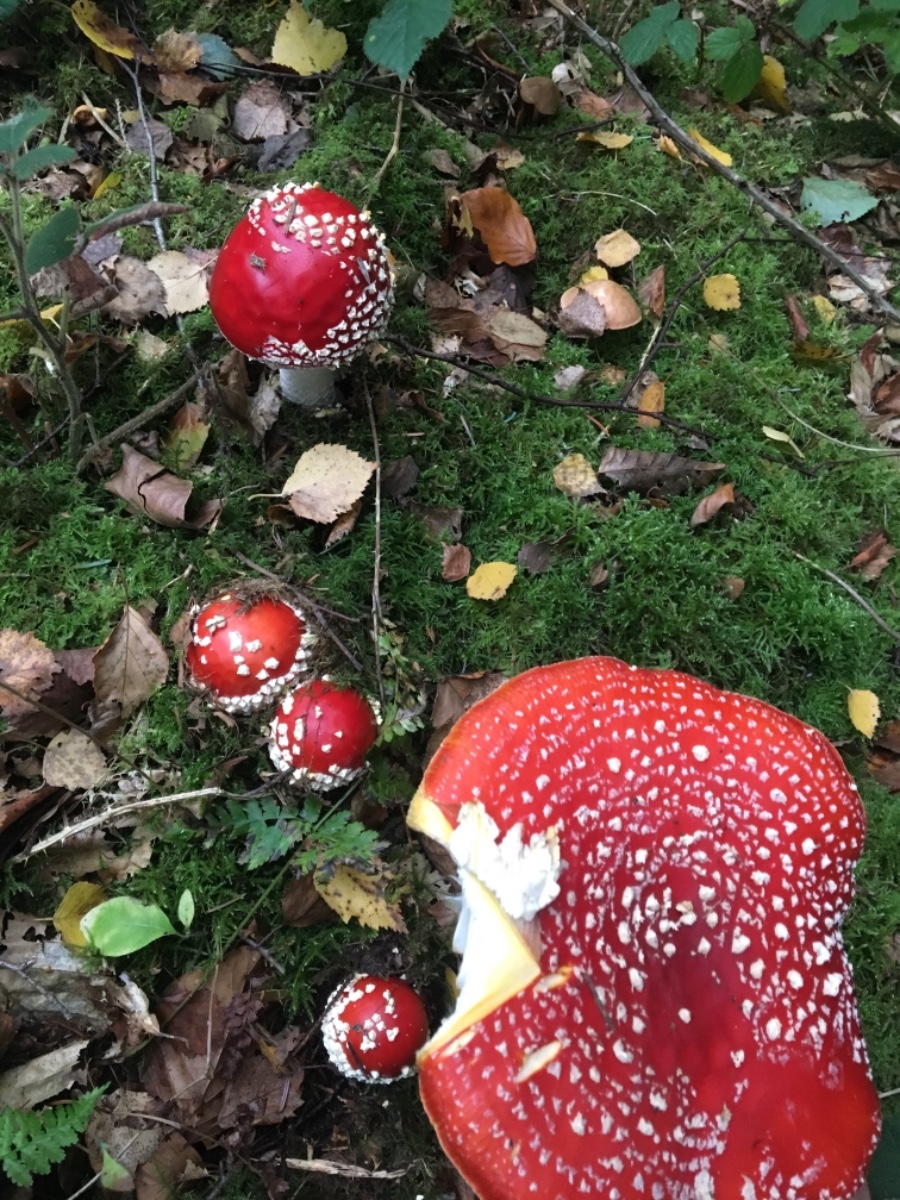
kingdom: Fungi
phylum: Basidiomycota
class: Agaricomycetes
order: Agaricales
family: Amanitaceae
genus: Amanita
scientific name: Amanita muscaria
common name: rød fluesvamp
